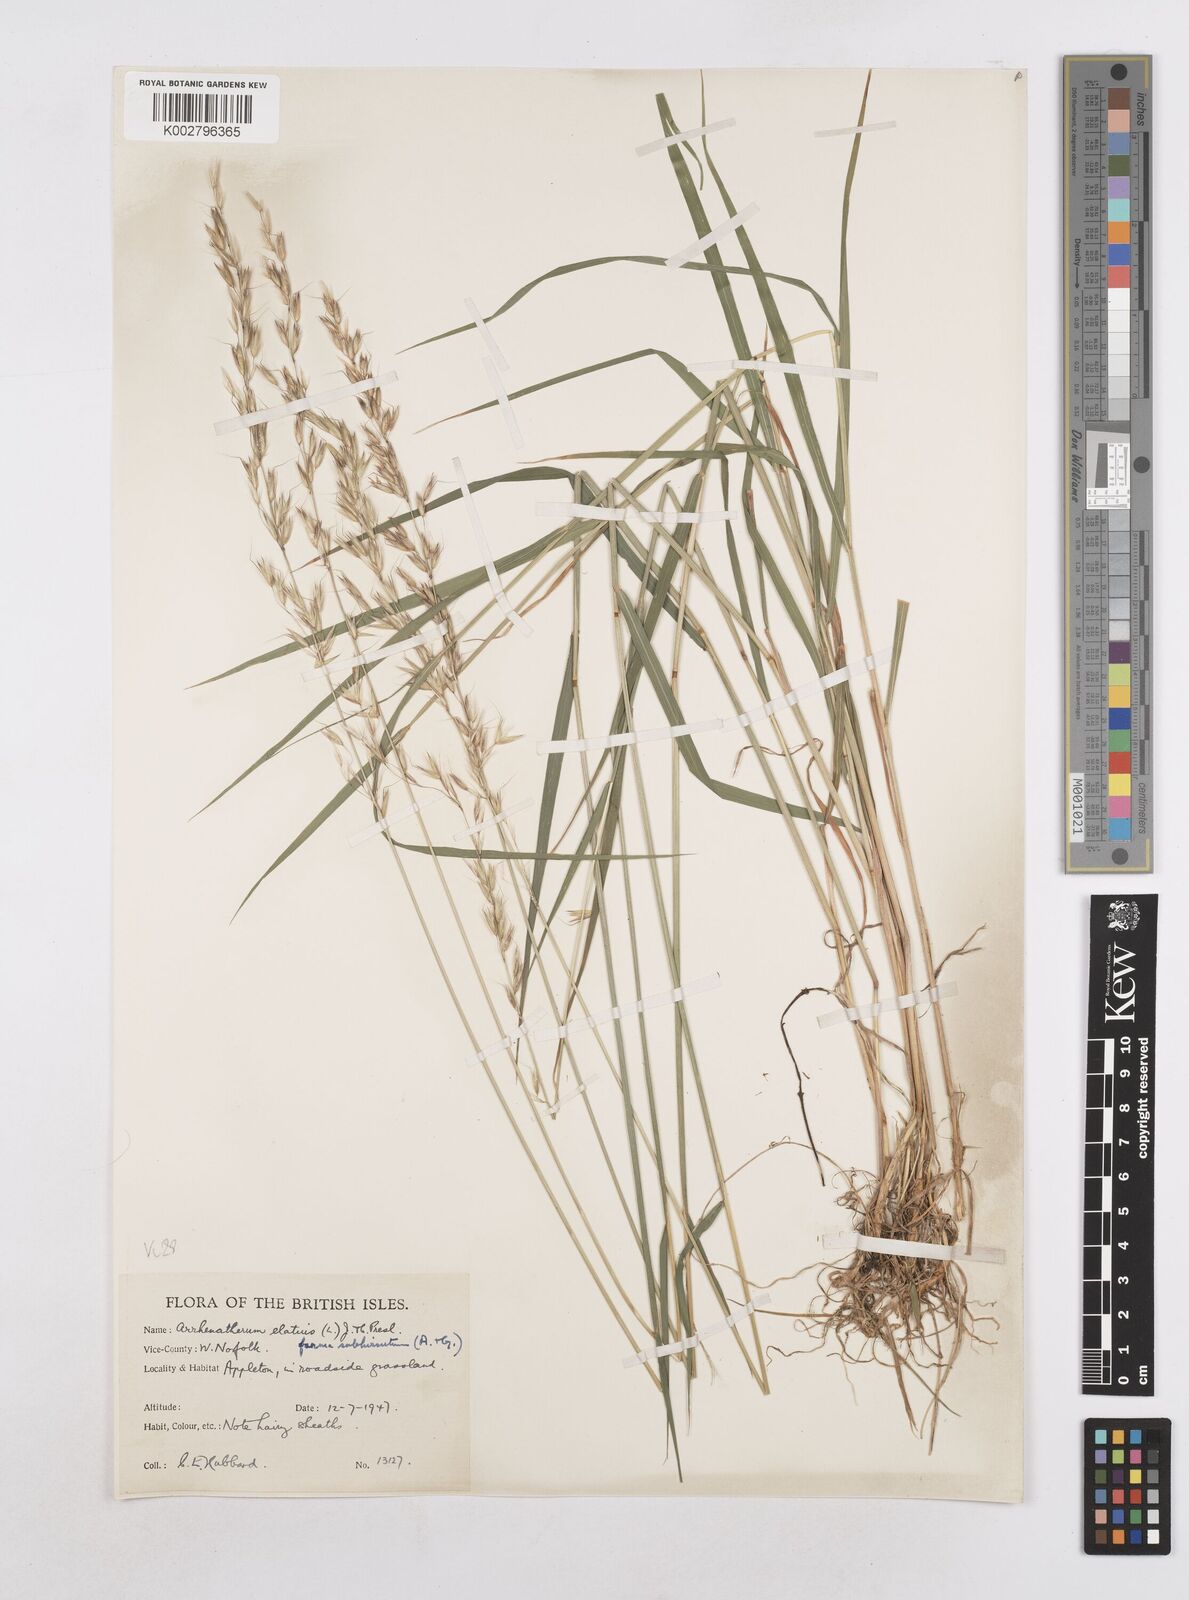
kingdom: Plantae
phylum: Tracheophyta
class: Liliopsida
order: Poales
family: Poaceae
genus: Arrhenatherum
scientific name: Arrhenatherum elatius
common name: Tall oatgrass
